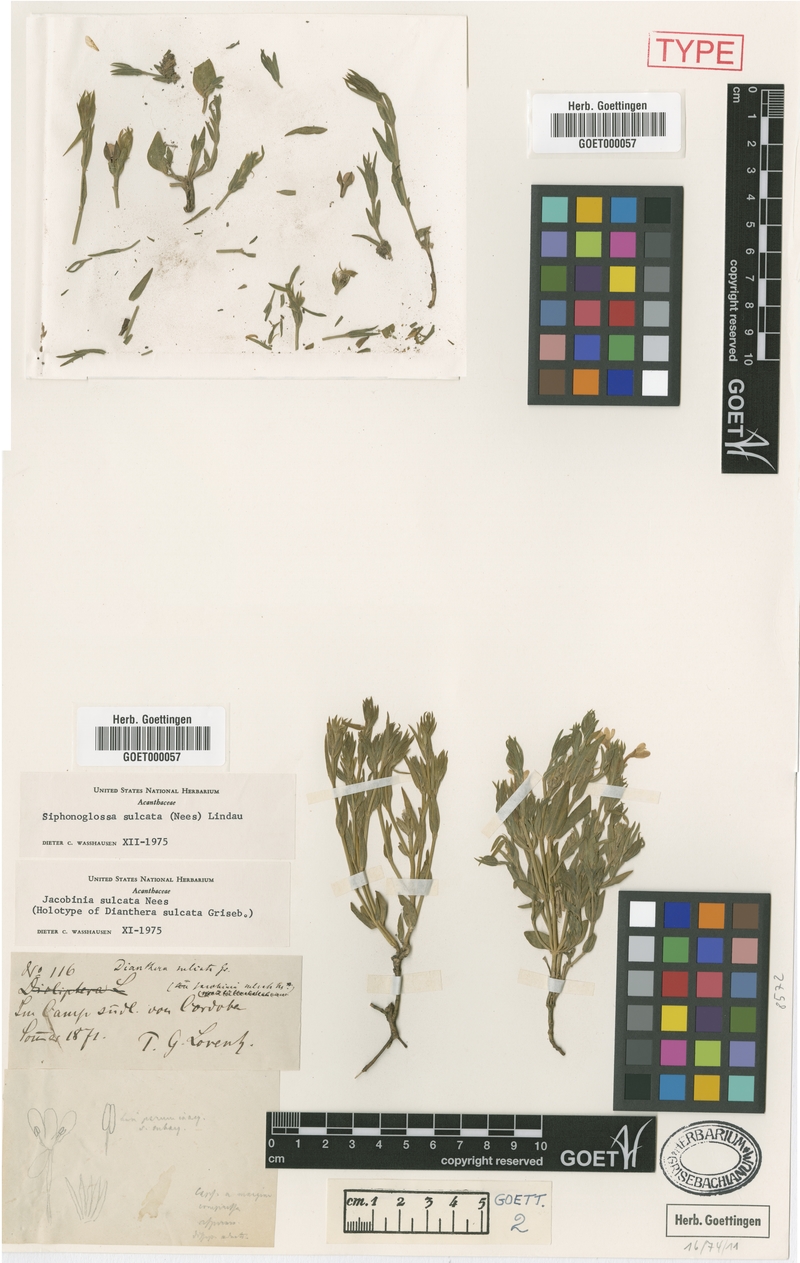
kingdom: Plantae
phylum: Tracheophyta
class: Magnoliopsida
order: Lamiales
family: Acanthaceae
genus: Thyrsacanthus
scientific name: Thyrsacanthus sulcatus
